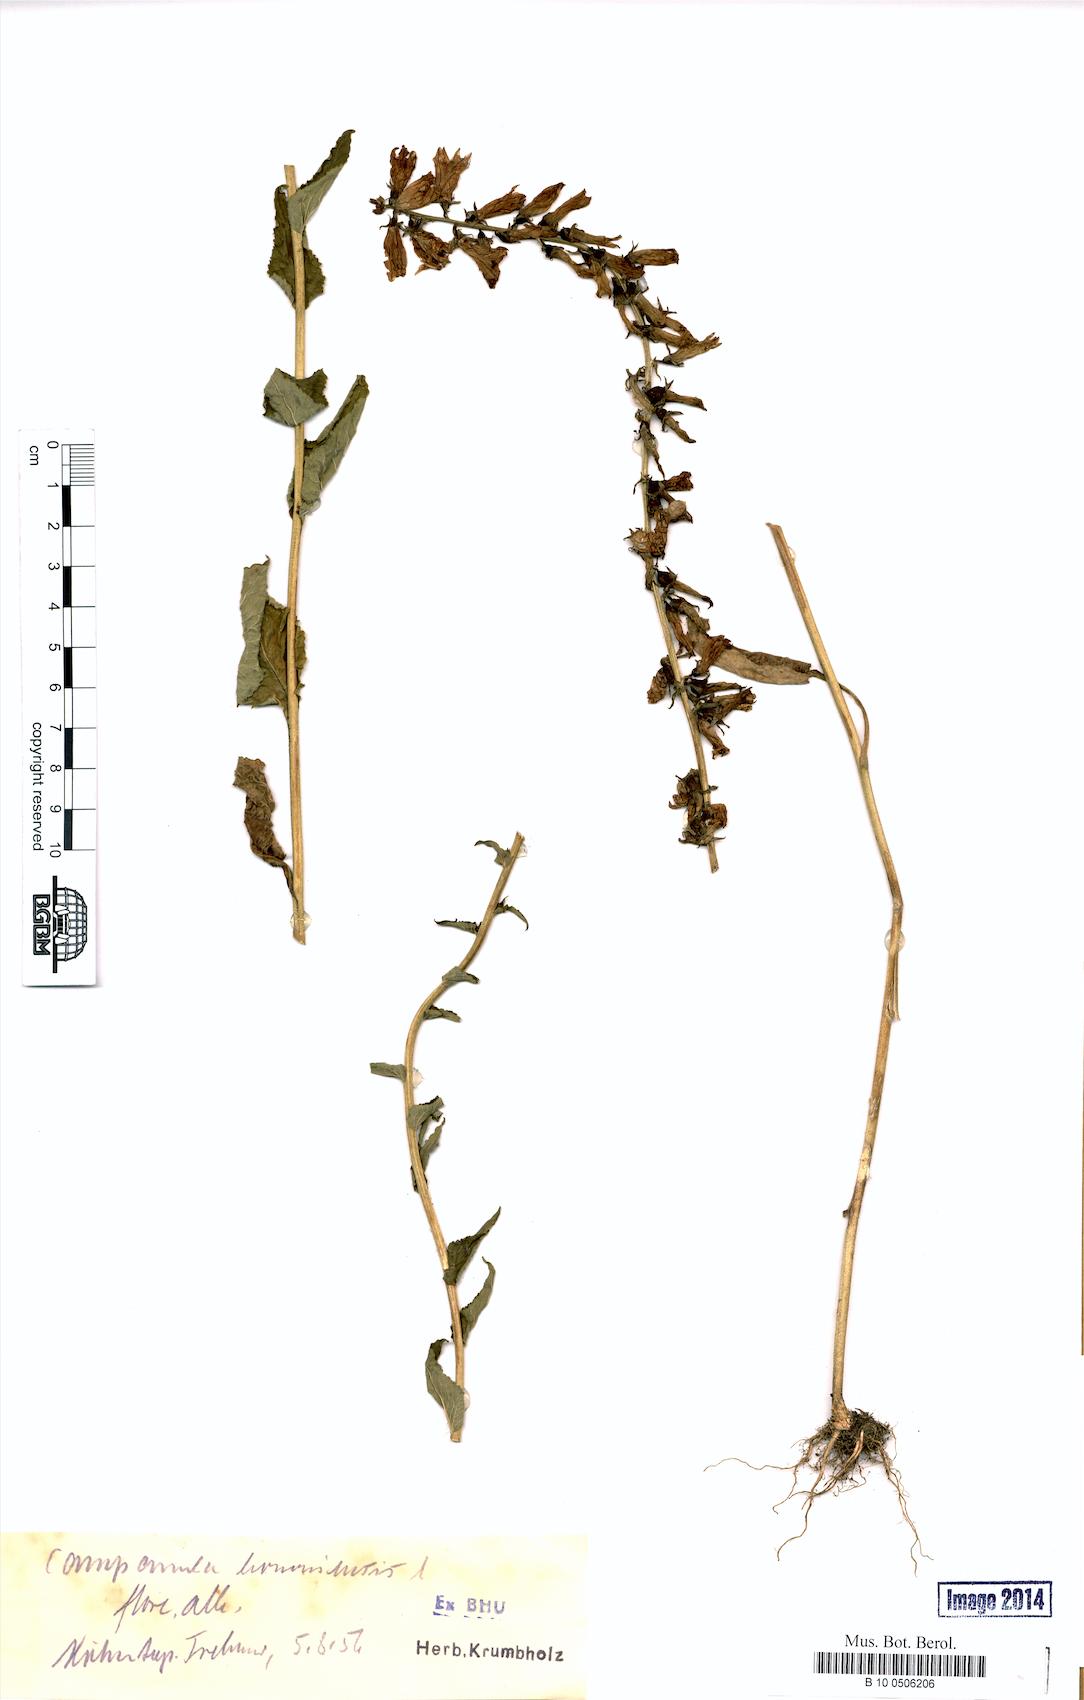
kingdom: Plantae
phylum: Tracheophyta
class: Magnoliopsida
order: Asterales
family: Campanulaceae
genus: Campanula
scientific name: Campanula bononiensis
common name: Pale bellflower
